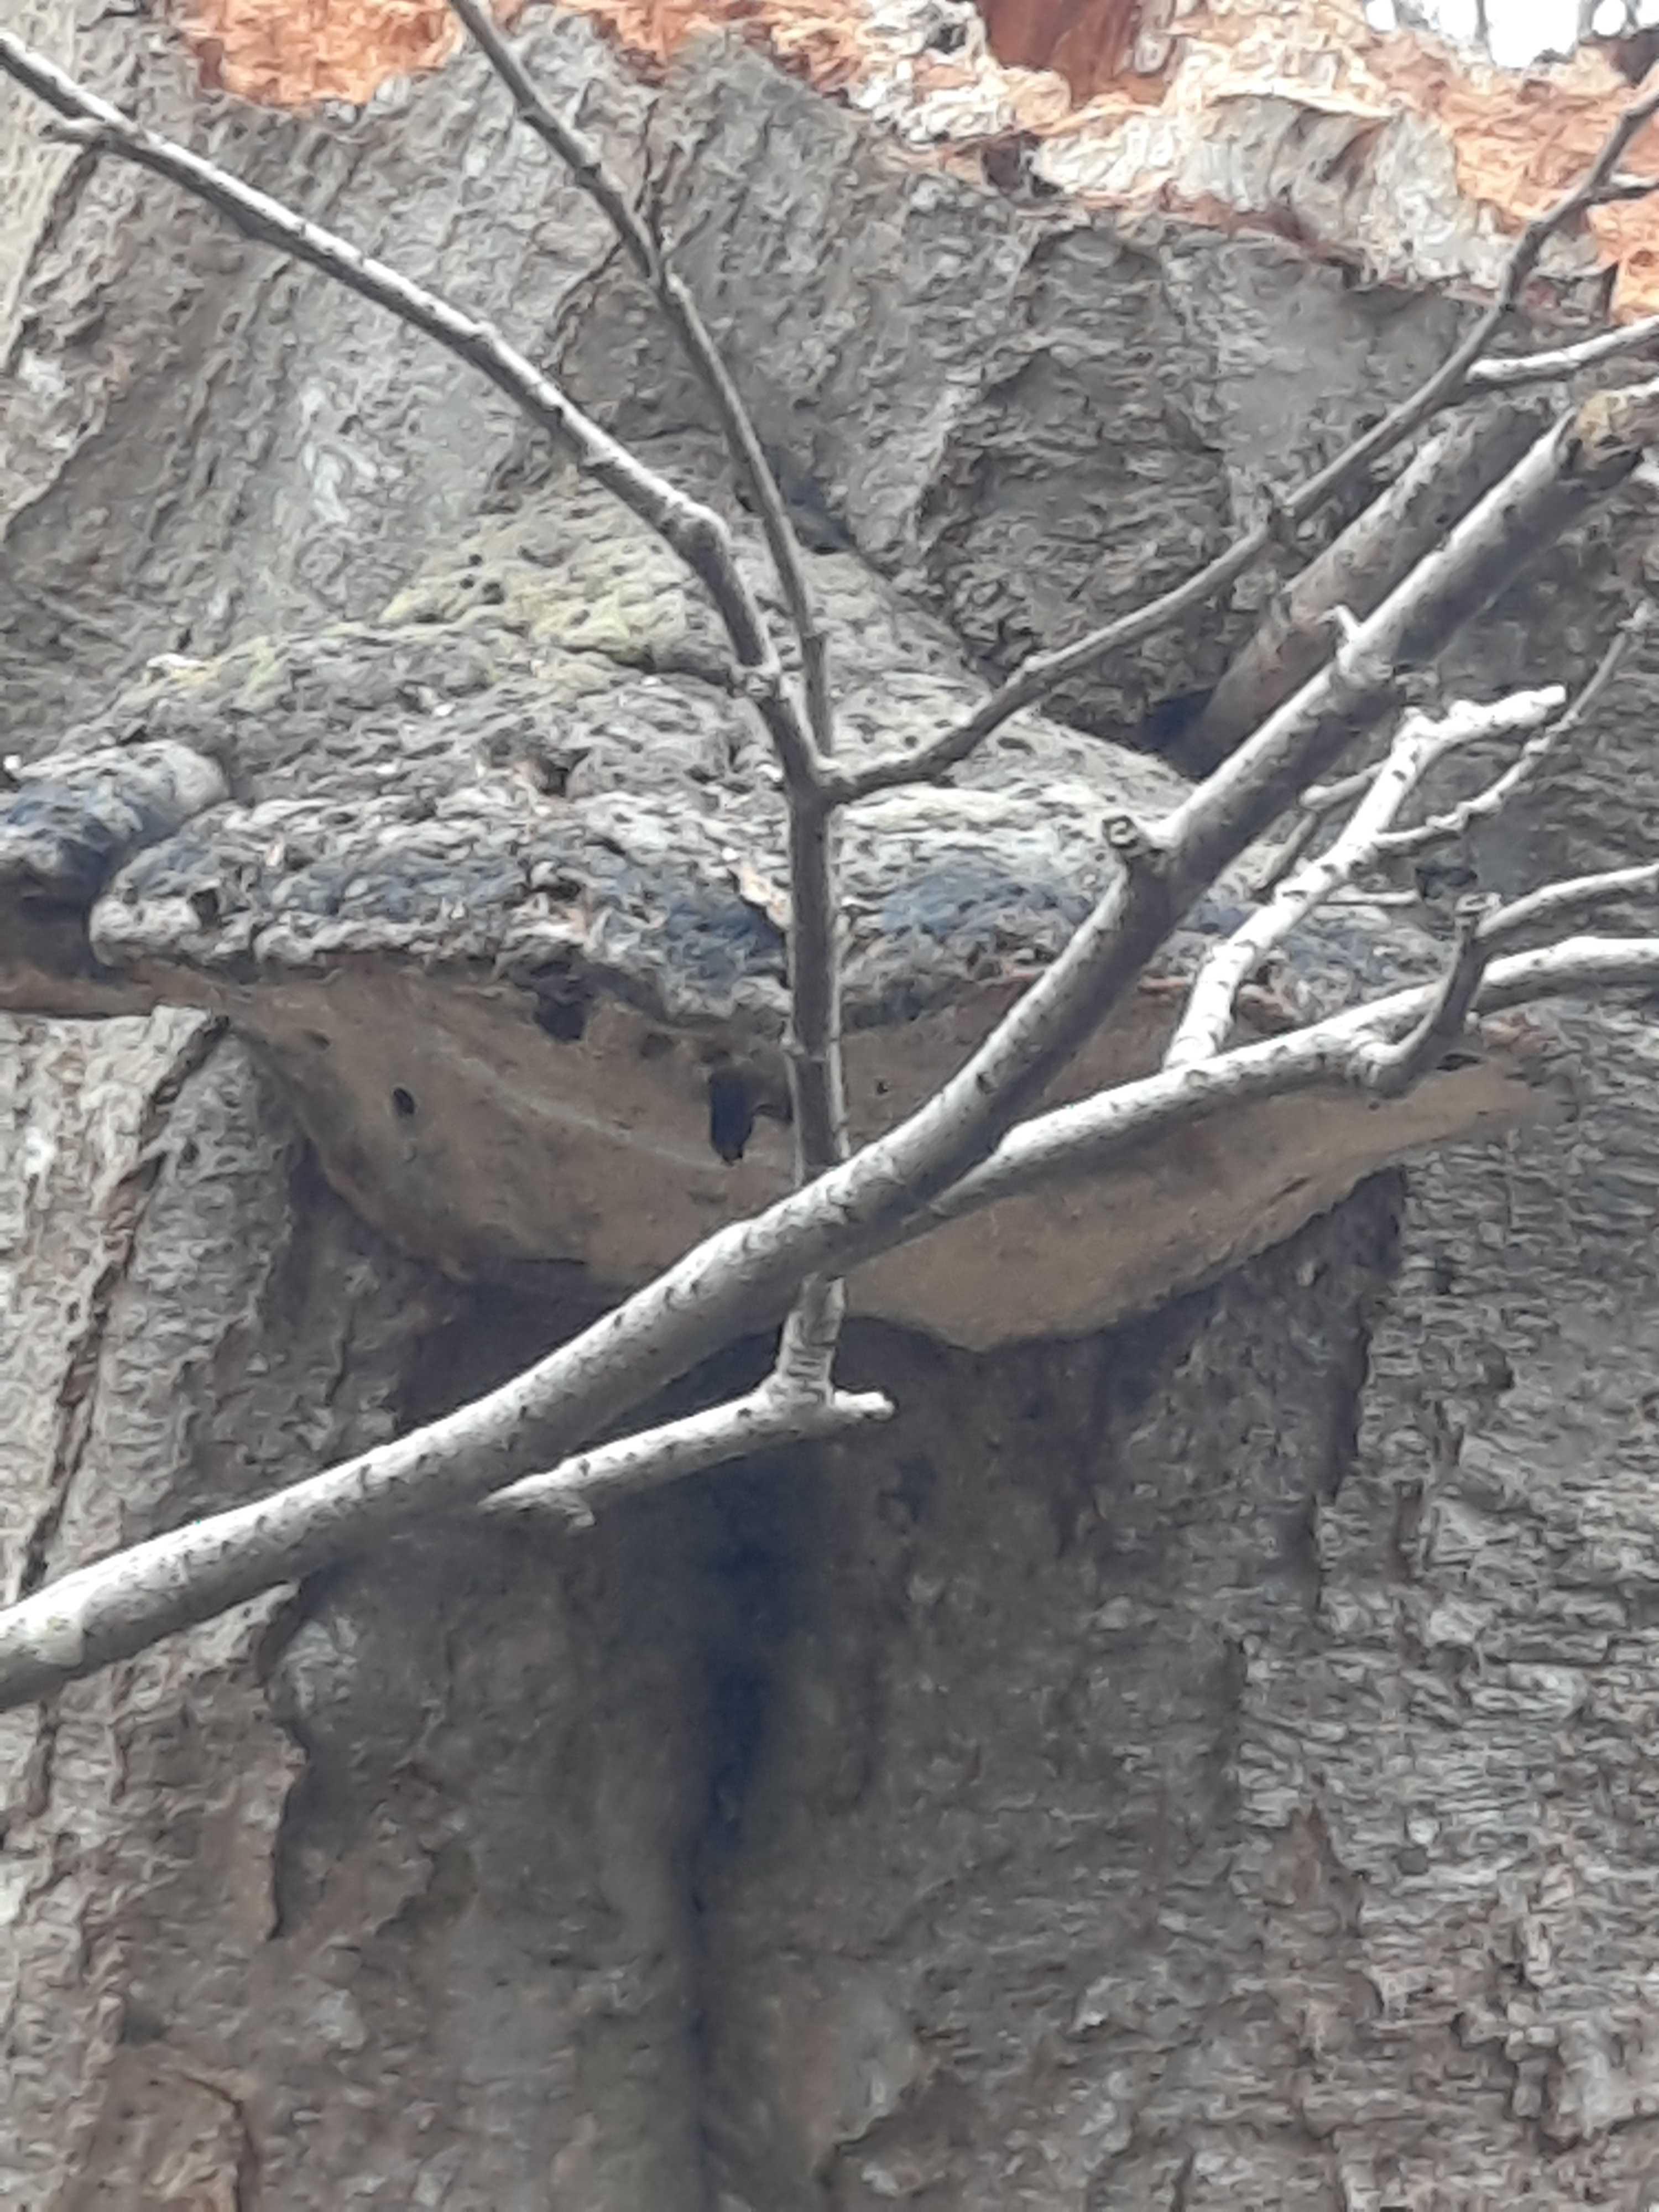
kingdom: Fungi
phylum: Basidiomycota
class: Agaricomycetes
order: Polyporales
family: Polyporaceae
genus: Fomes
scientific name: Fomes fomentarius
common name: tøndersvamp
